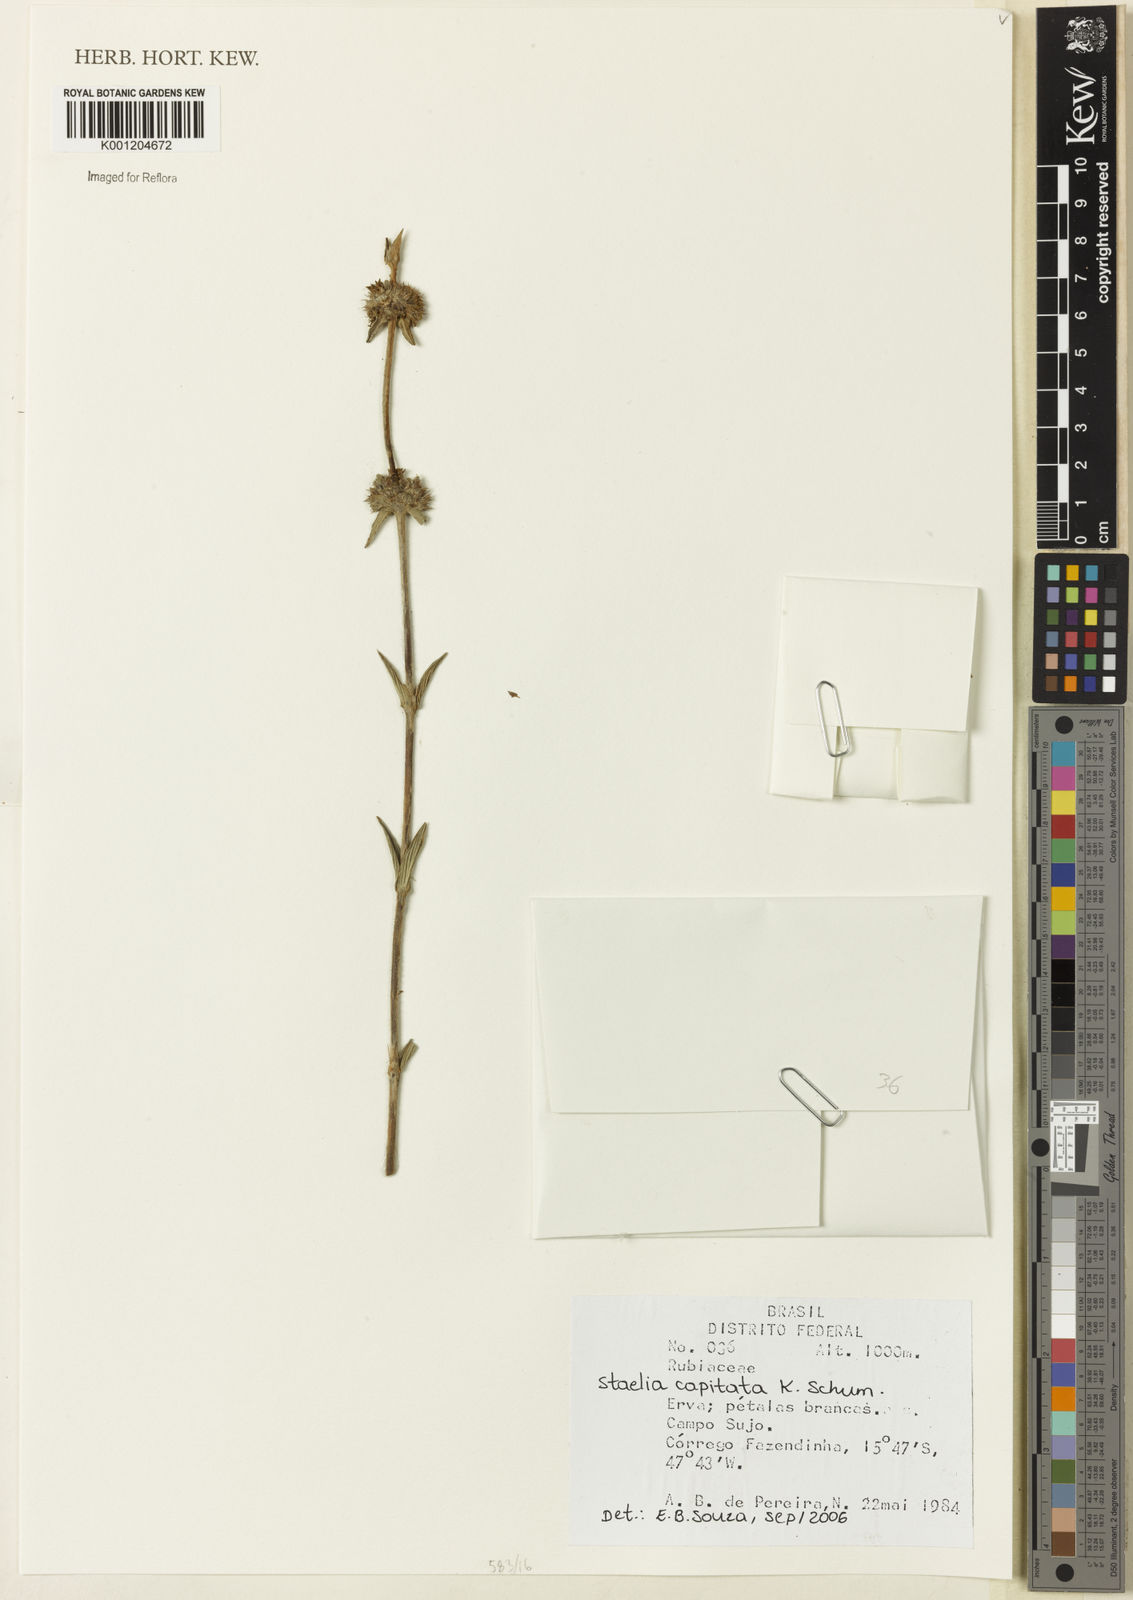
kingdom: Plantae
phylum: Tracheophyta
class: Magnoliopsida
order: Gentianales
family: Rubiaceae
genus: Planaltina
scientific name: Planaltina capitata
